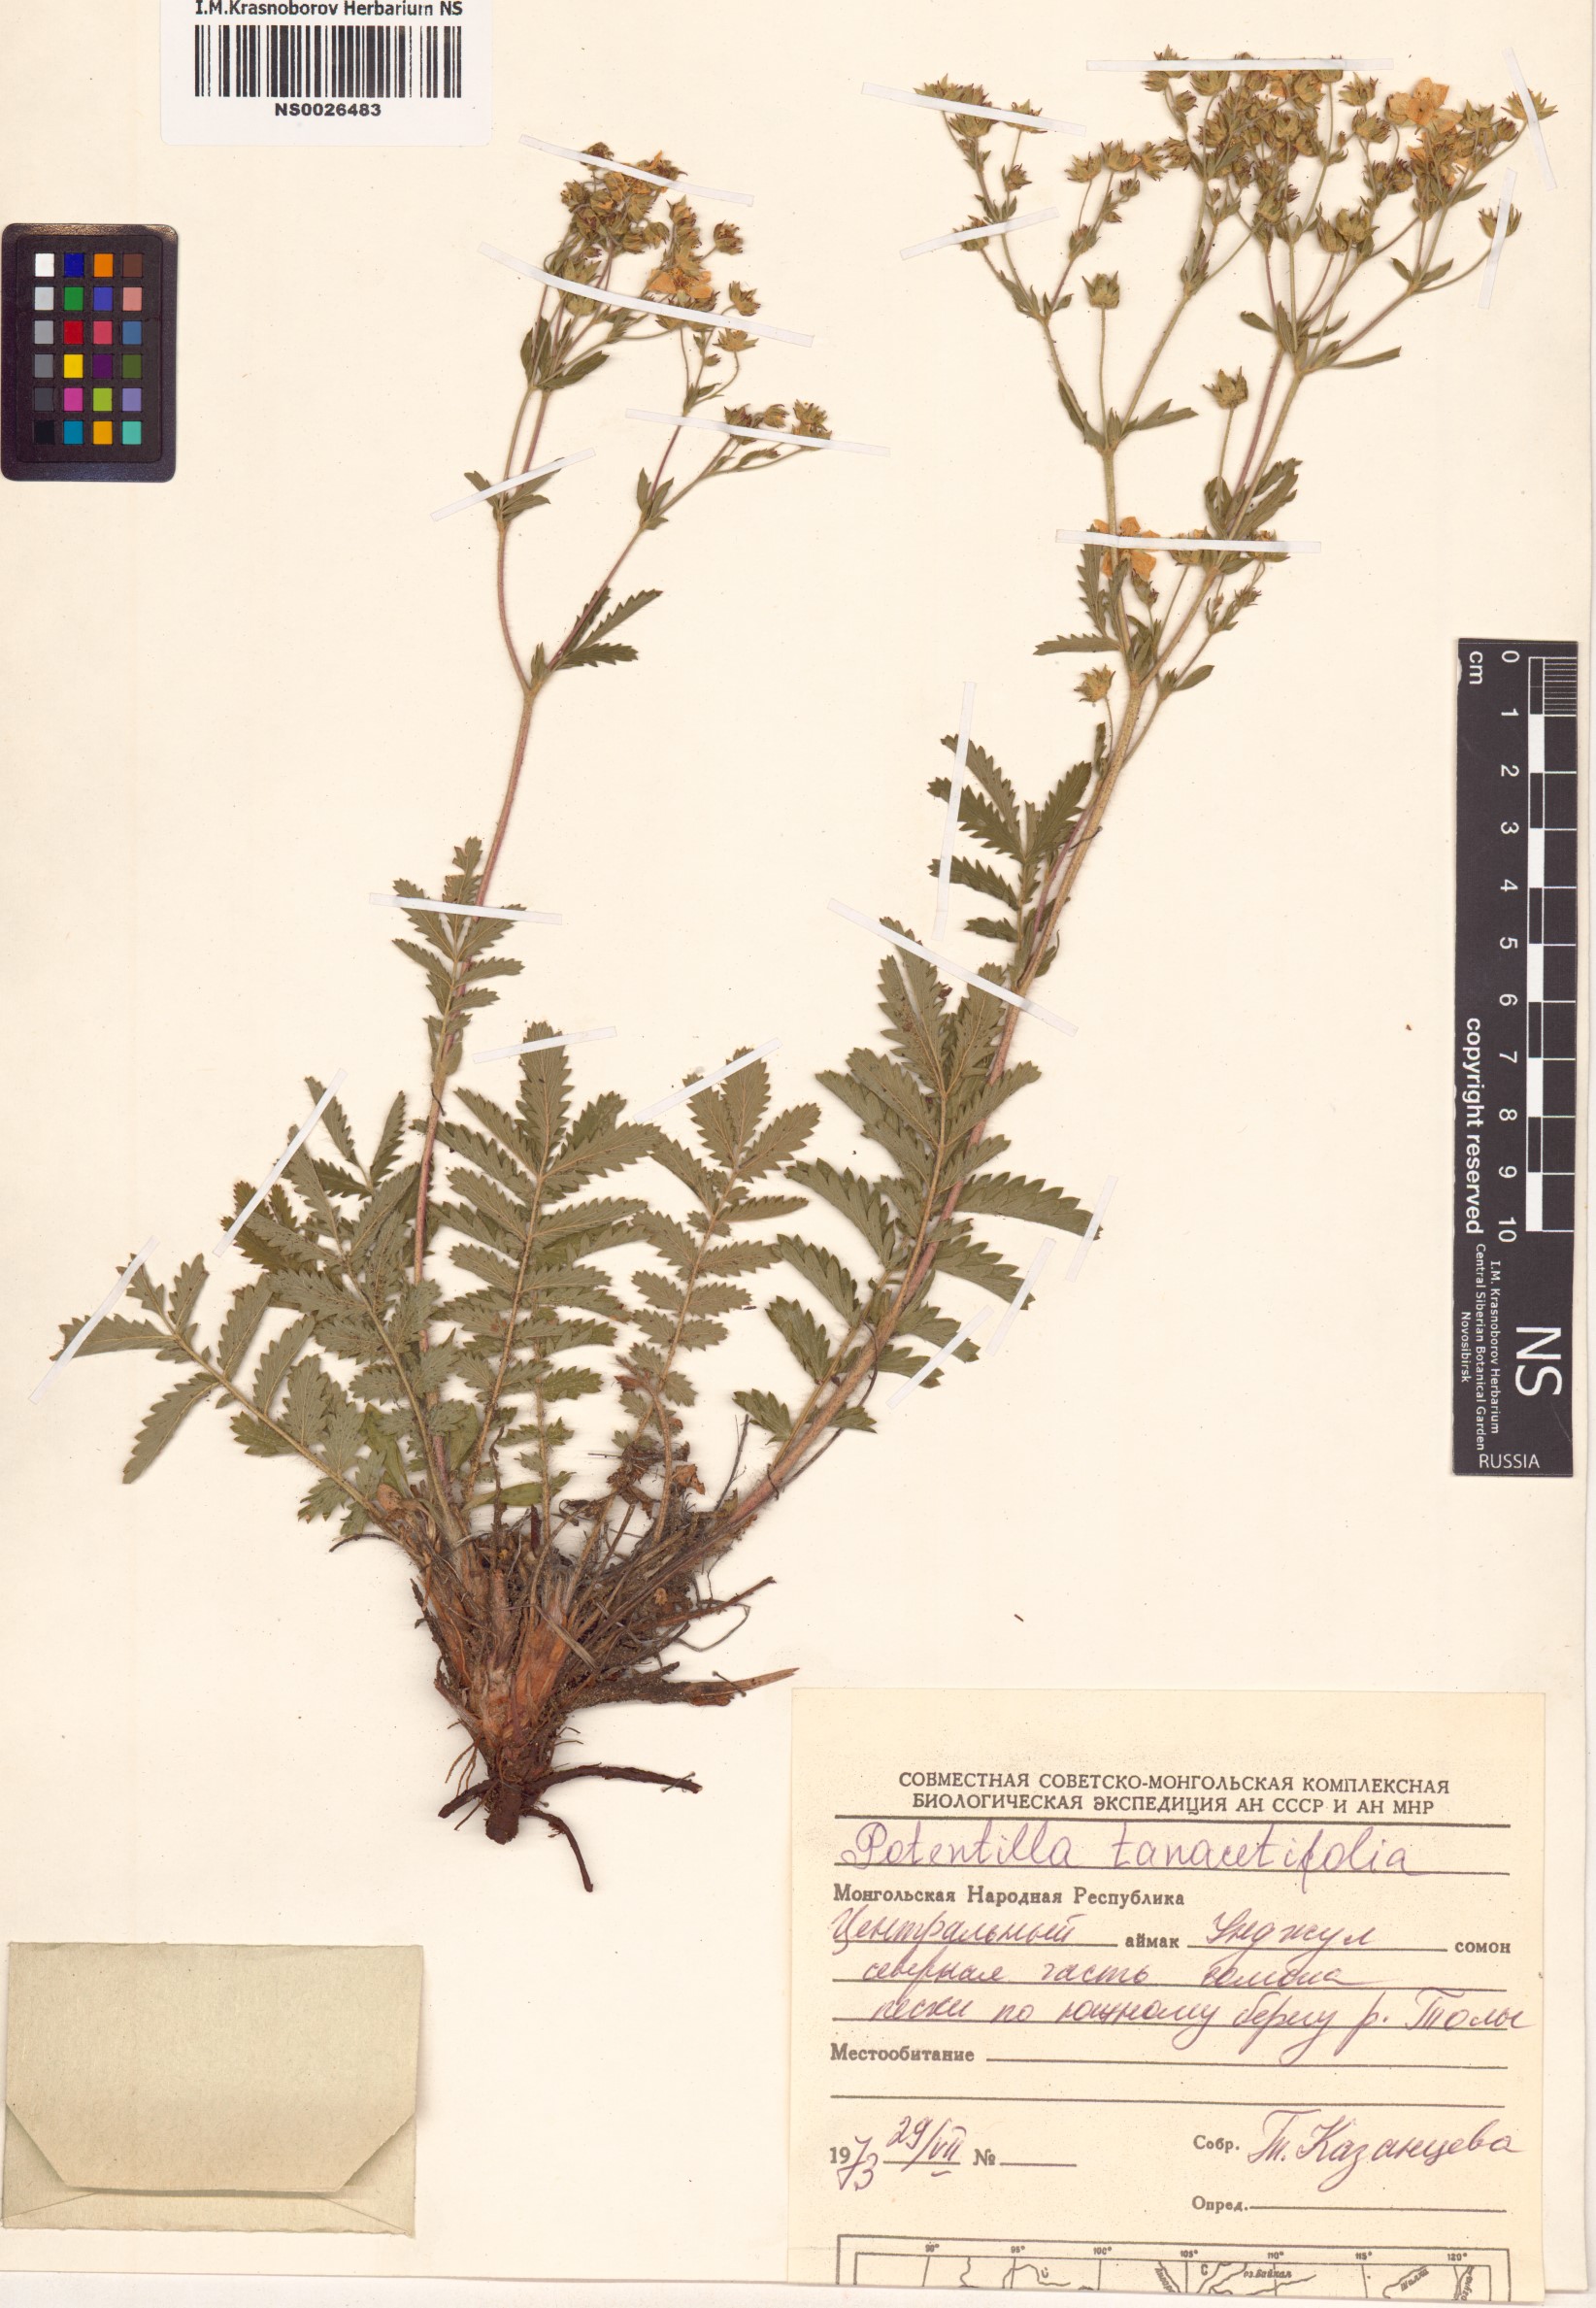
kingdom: Plantae
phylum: Tracheophyta
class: Magnoliopsida
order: Rosales
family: Rosaceae
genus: Potentilla
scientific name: Potentilla tanacetifolia
